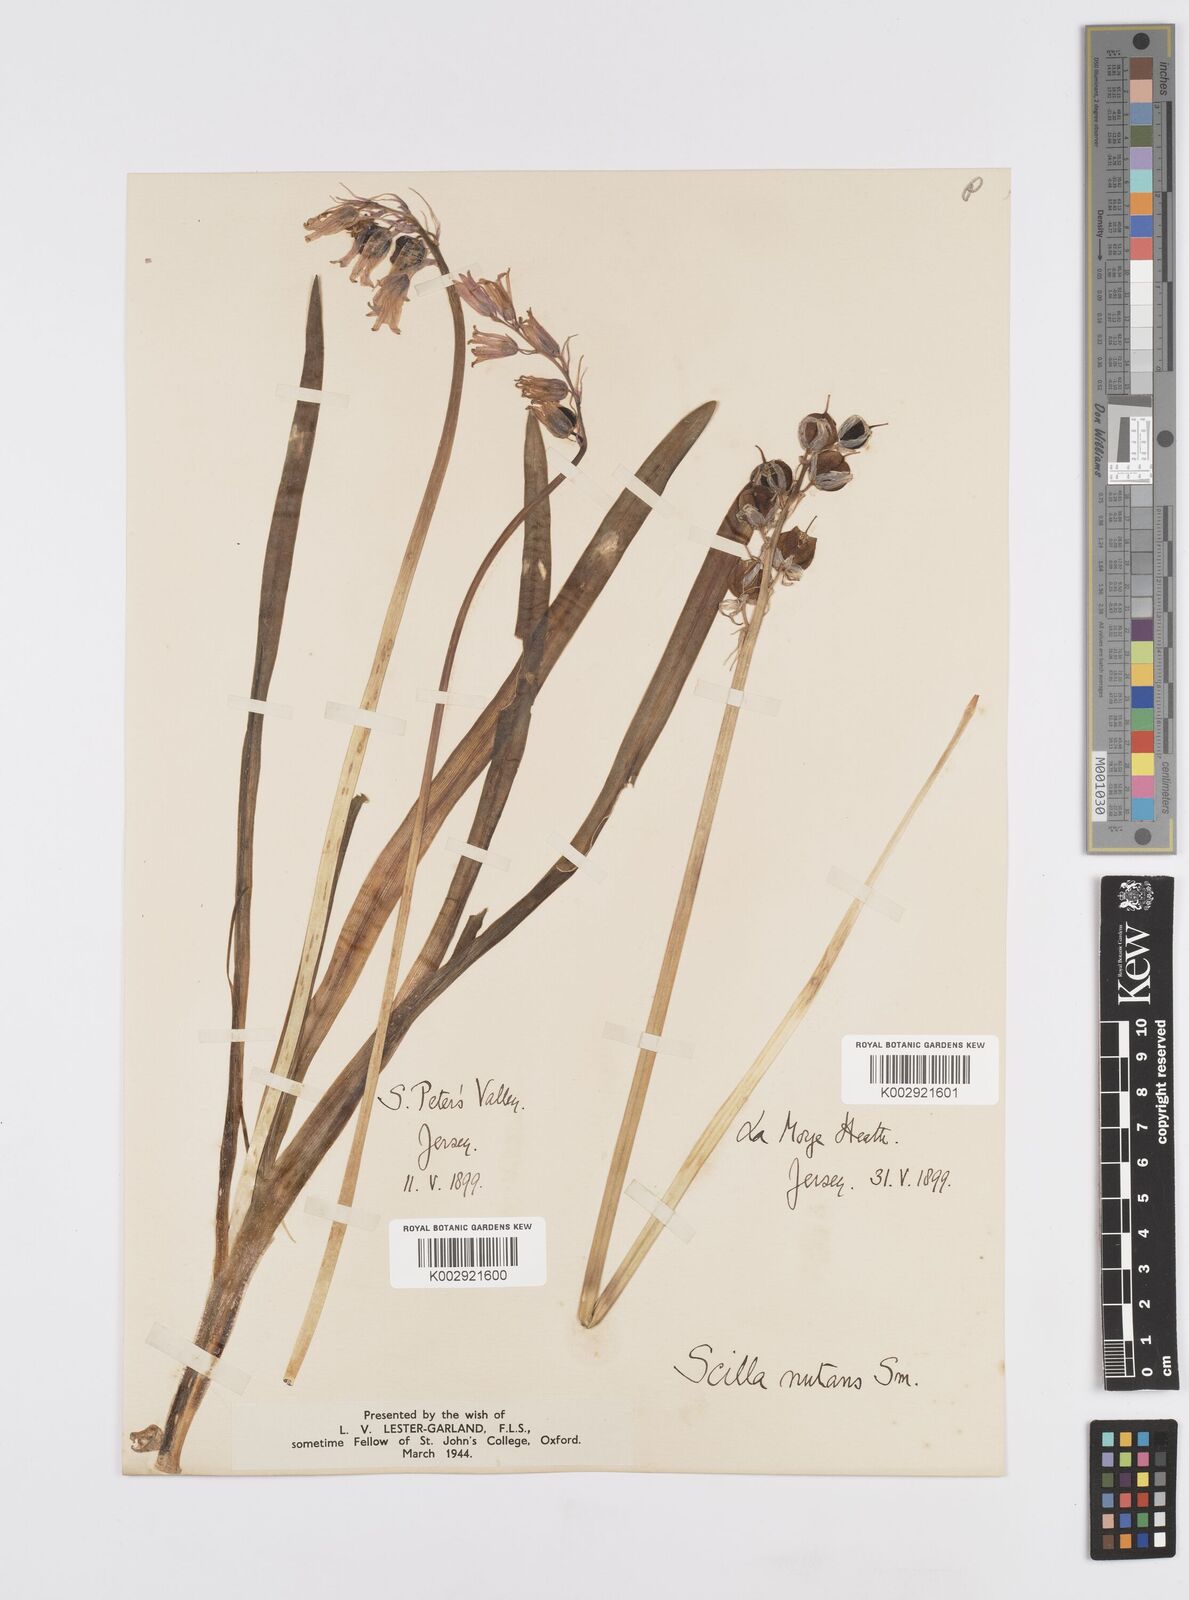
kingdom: Plantae
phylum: Tracheophyta
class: Liliopsida
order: Asparagales
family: Asparagaceae
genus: Hyacinthoides
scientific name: Hyacinthoides non-scripta
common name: Bluebell
